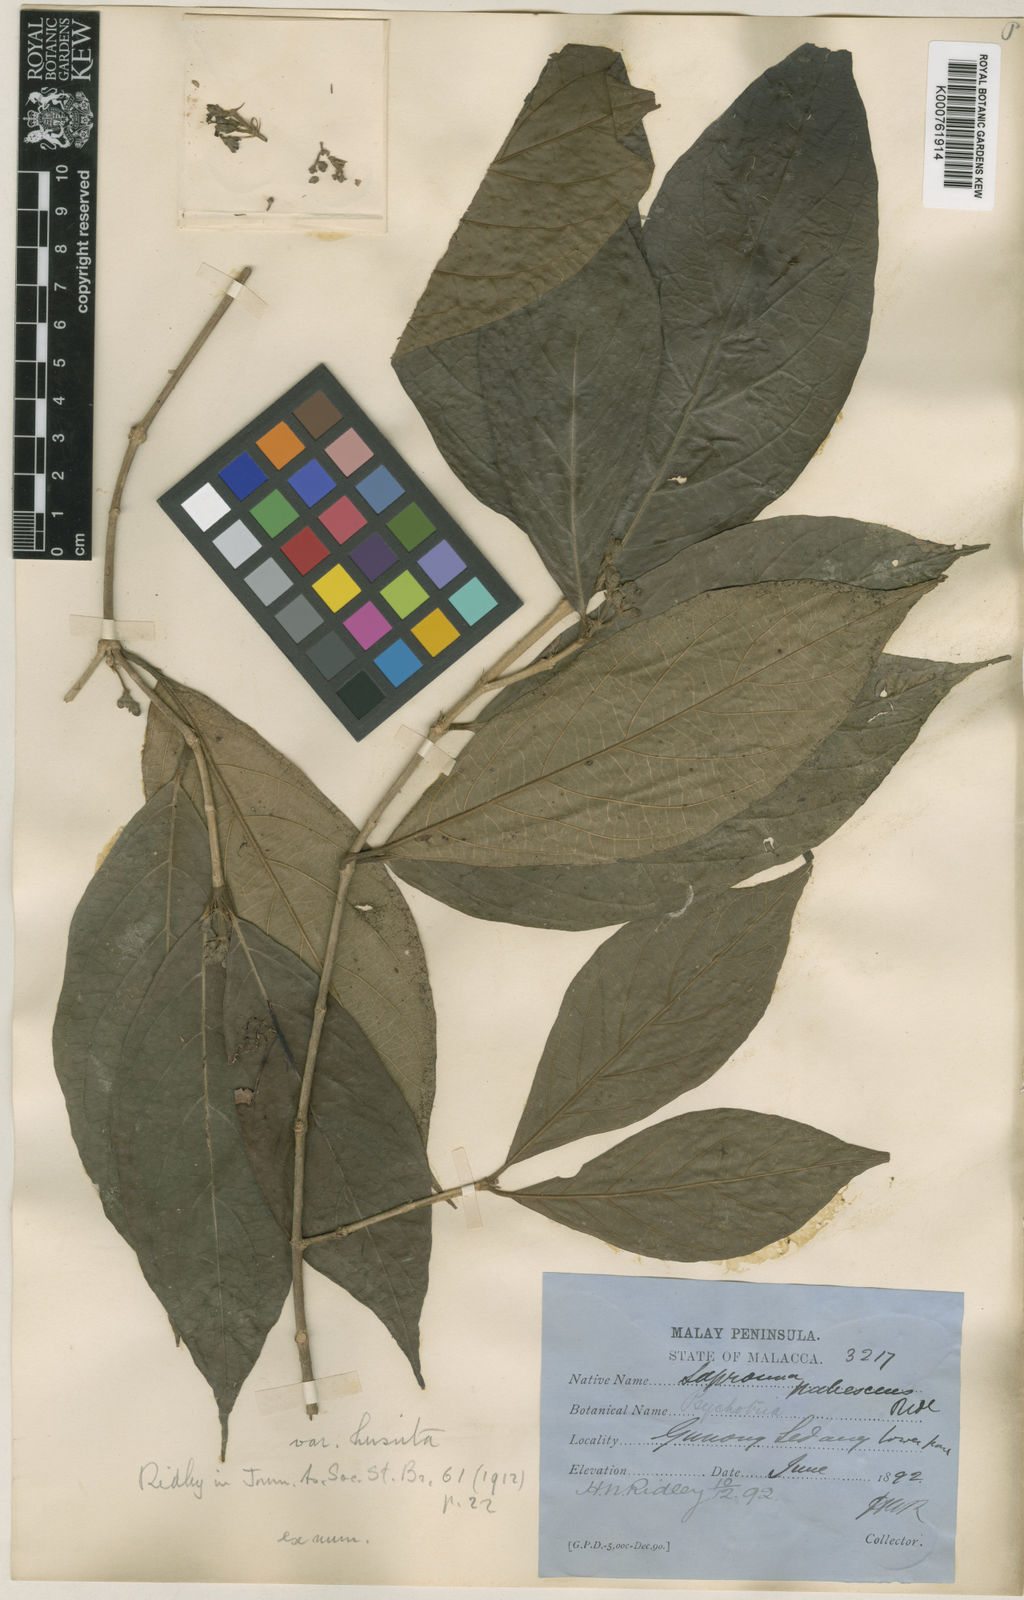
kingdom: Plantae
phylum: Tracheophyta
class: Magnoliopsida
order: Gentianales
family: Rubiaceae
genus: Saprosma
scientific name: Saprosma pubescens
